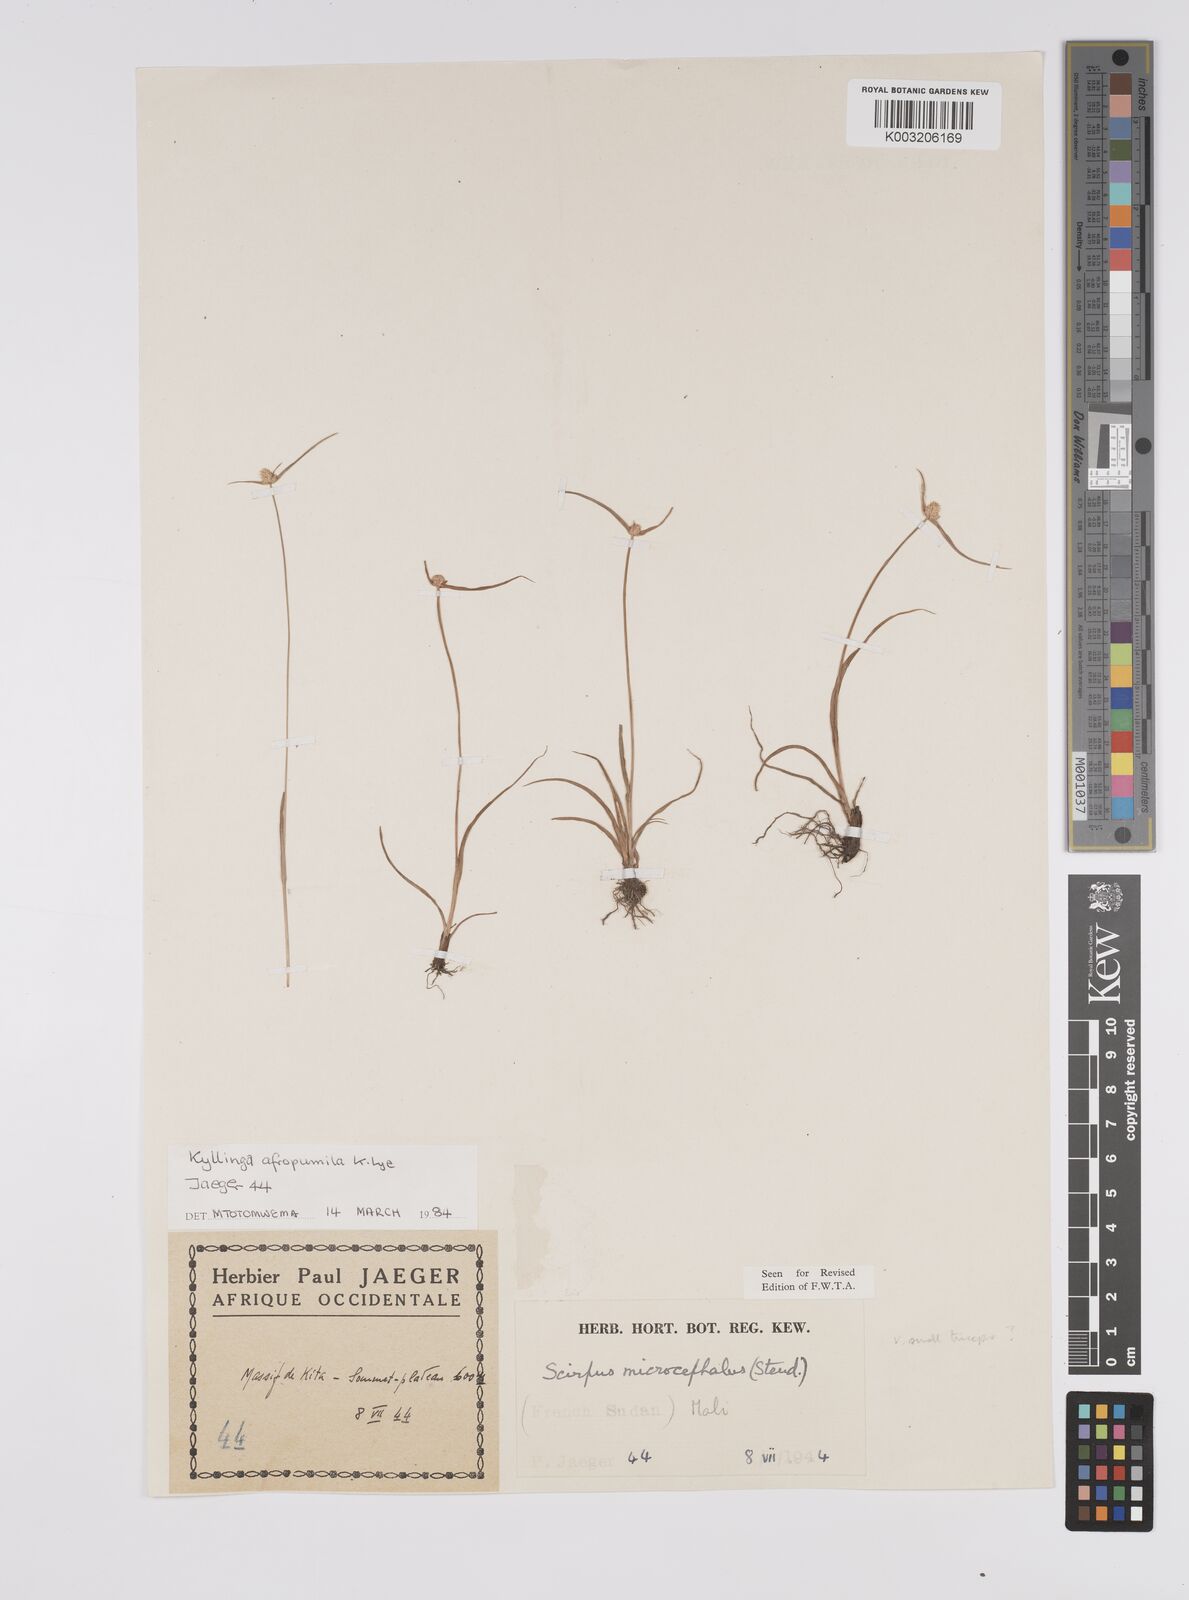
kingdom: Plantae
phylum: Tracheophyta
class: Liliopsida
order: Poales
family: Cyperaceae
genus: Cyperus
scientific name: Cyperus microbulbosus
